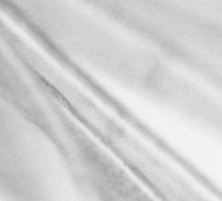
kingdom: Animalia
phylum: Chordata
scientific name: Chordata
